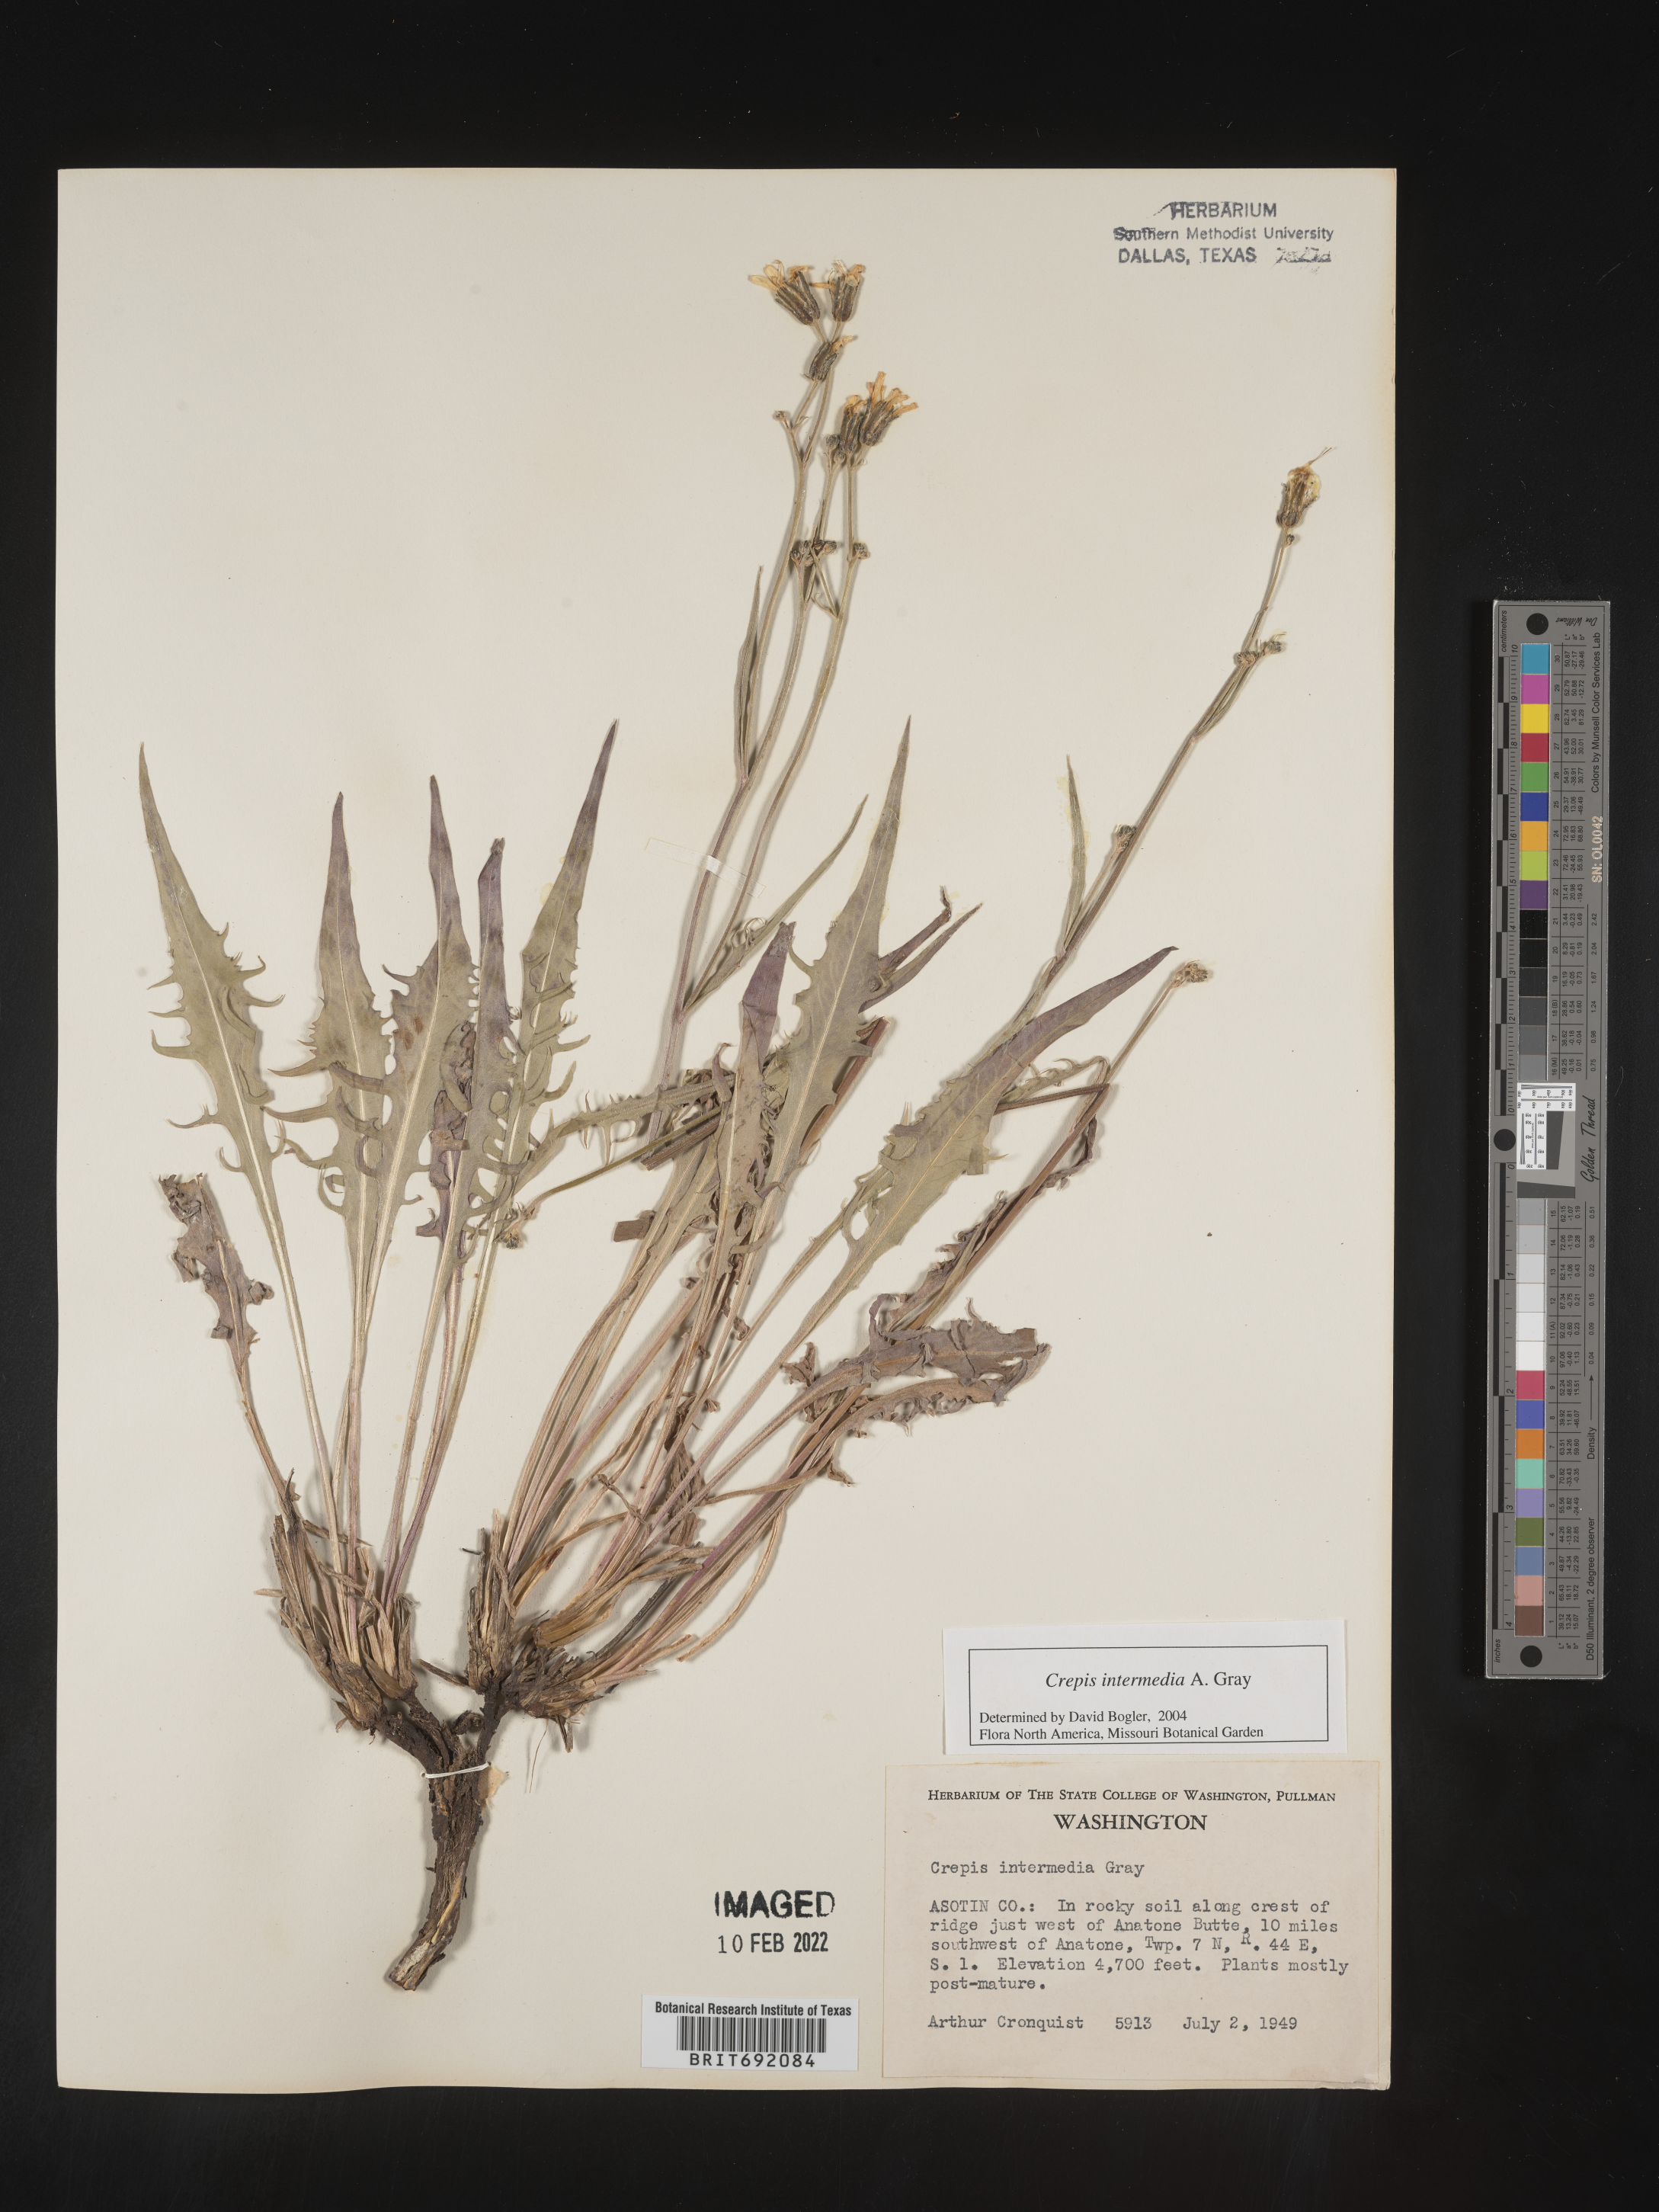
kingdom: Plantae
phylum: Tracheophyta
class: Magnoliopsida
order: Asterales
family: Asteraceae
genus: Crepis
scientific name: Crepis intermedia
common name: Limestone hawk's-beard
